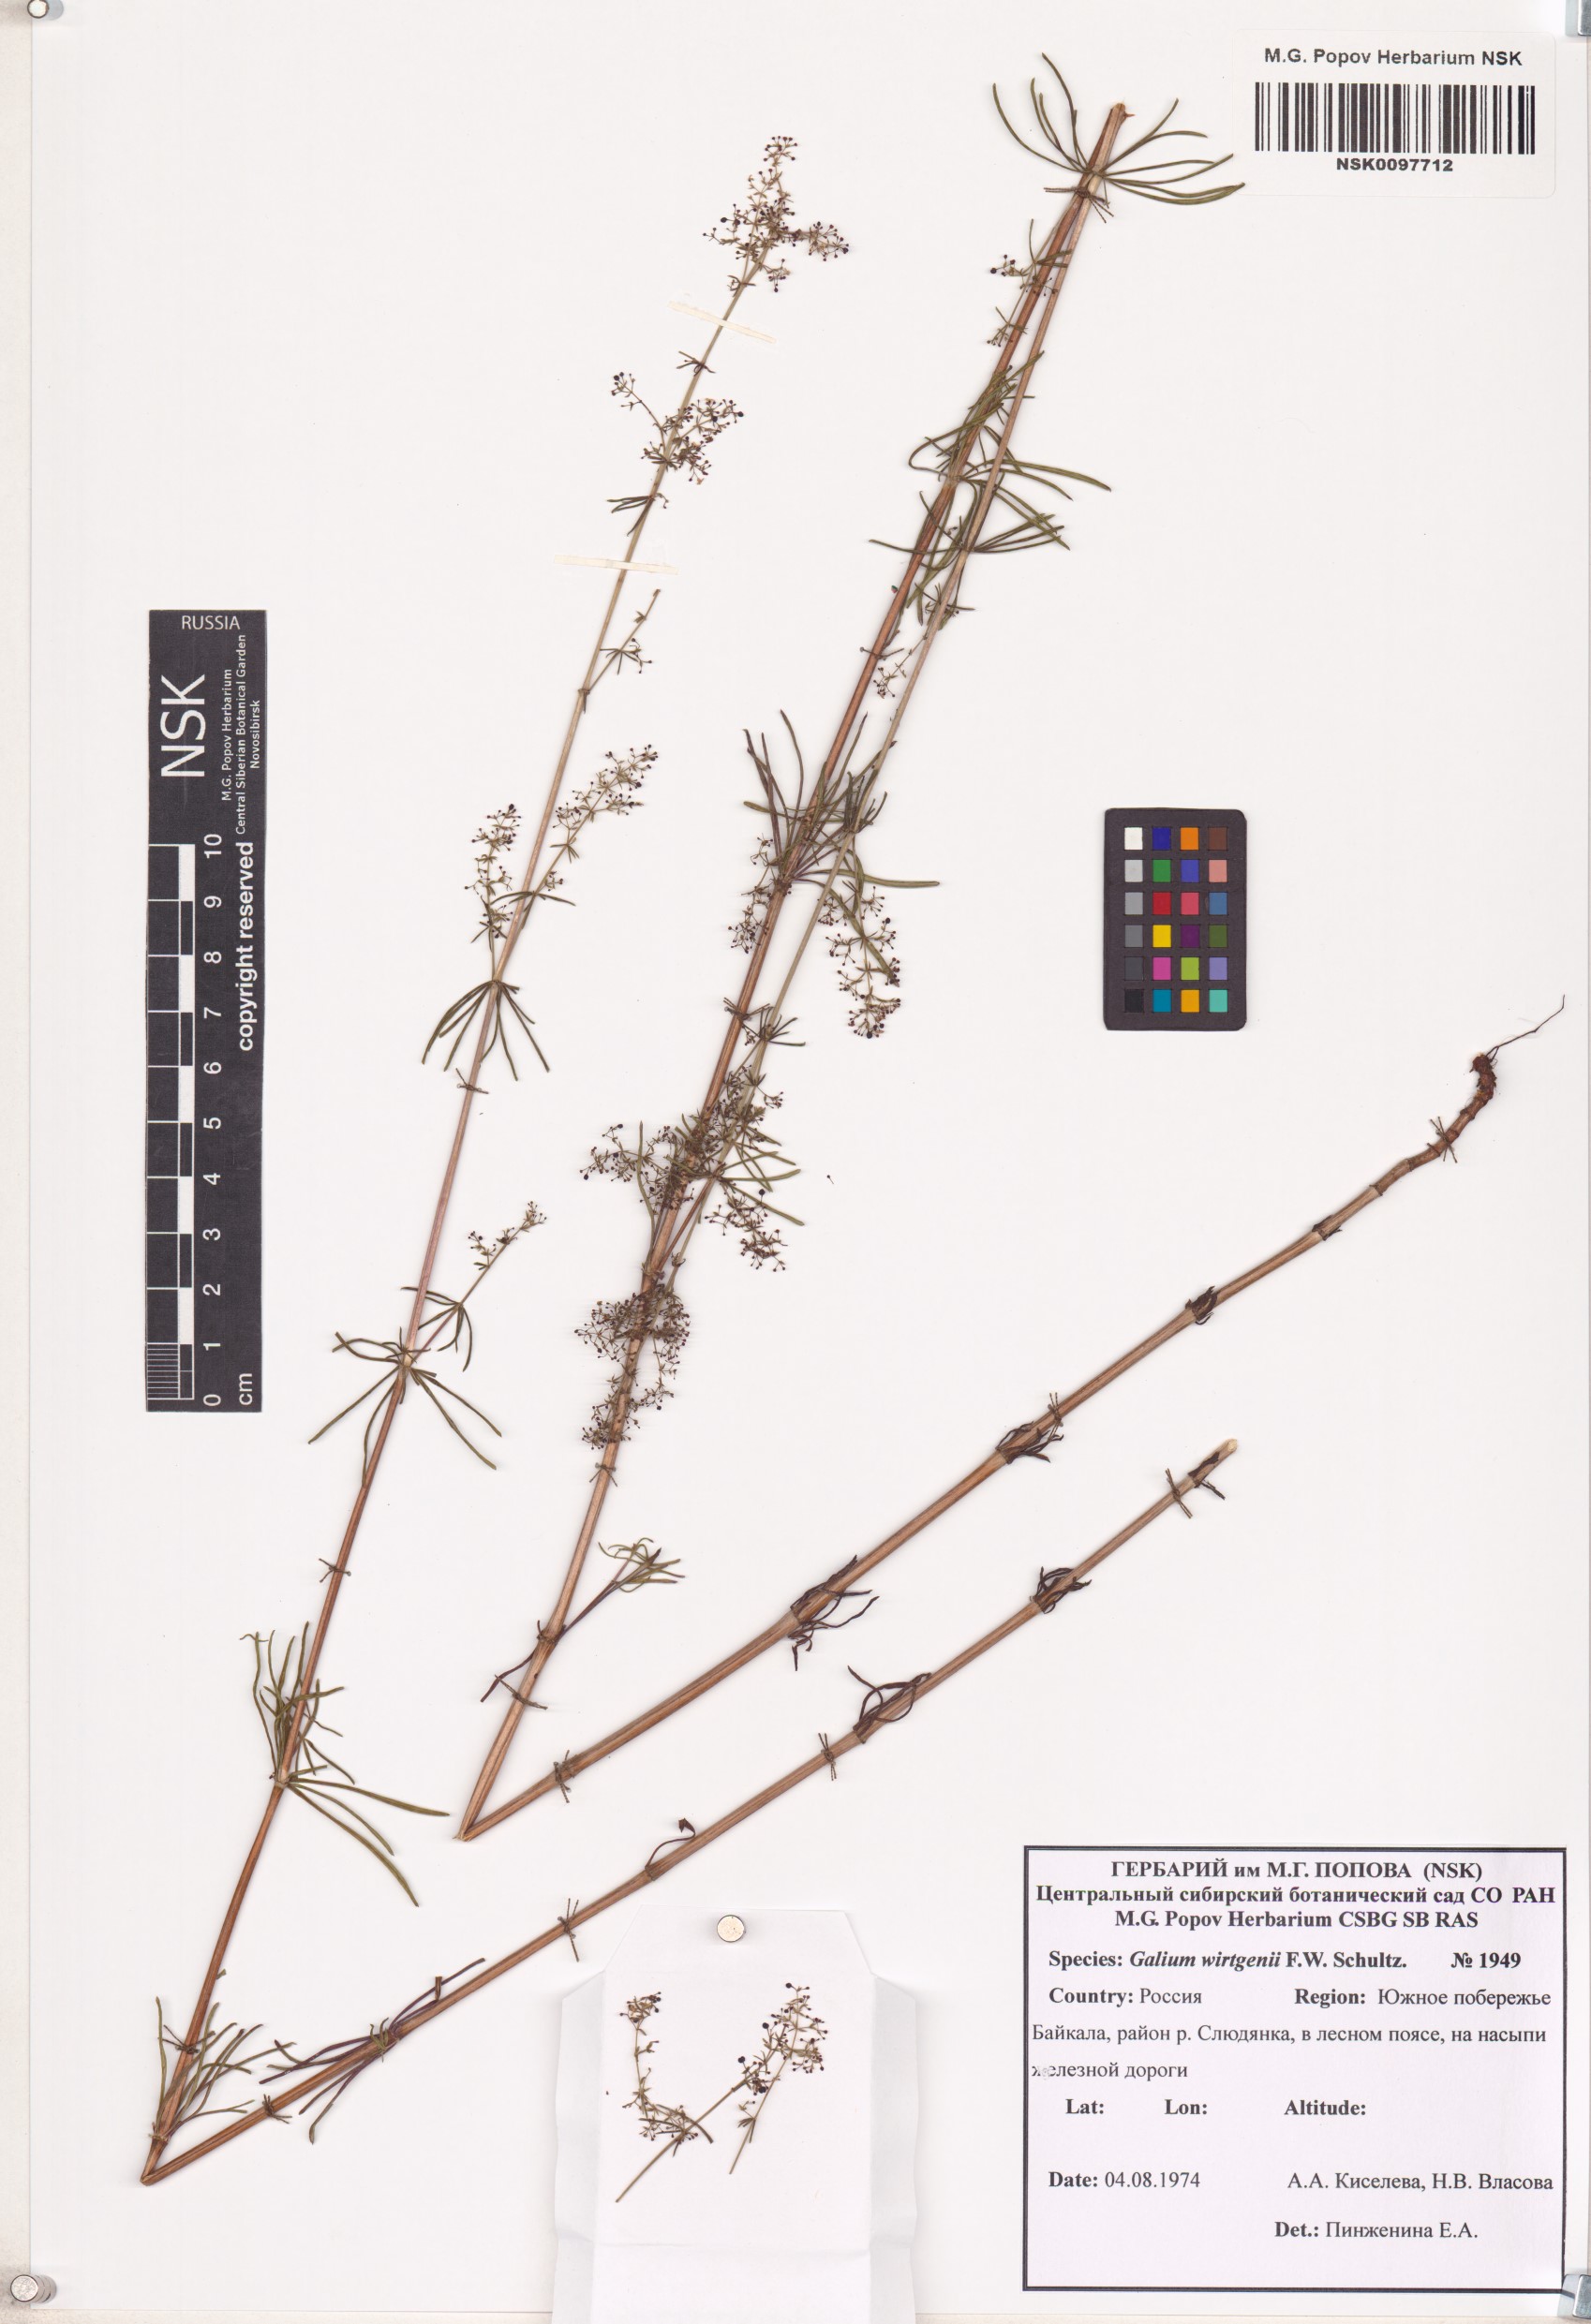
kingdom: Plantae
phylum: Tracheophyta
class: Magnoliopsida
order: Gentianales
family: Rubiaceae
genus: Galium
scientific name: Galium verum
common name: Lady's bedstraw
